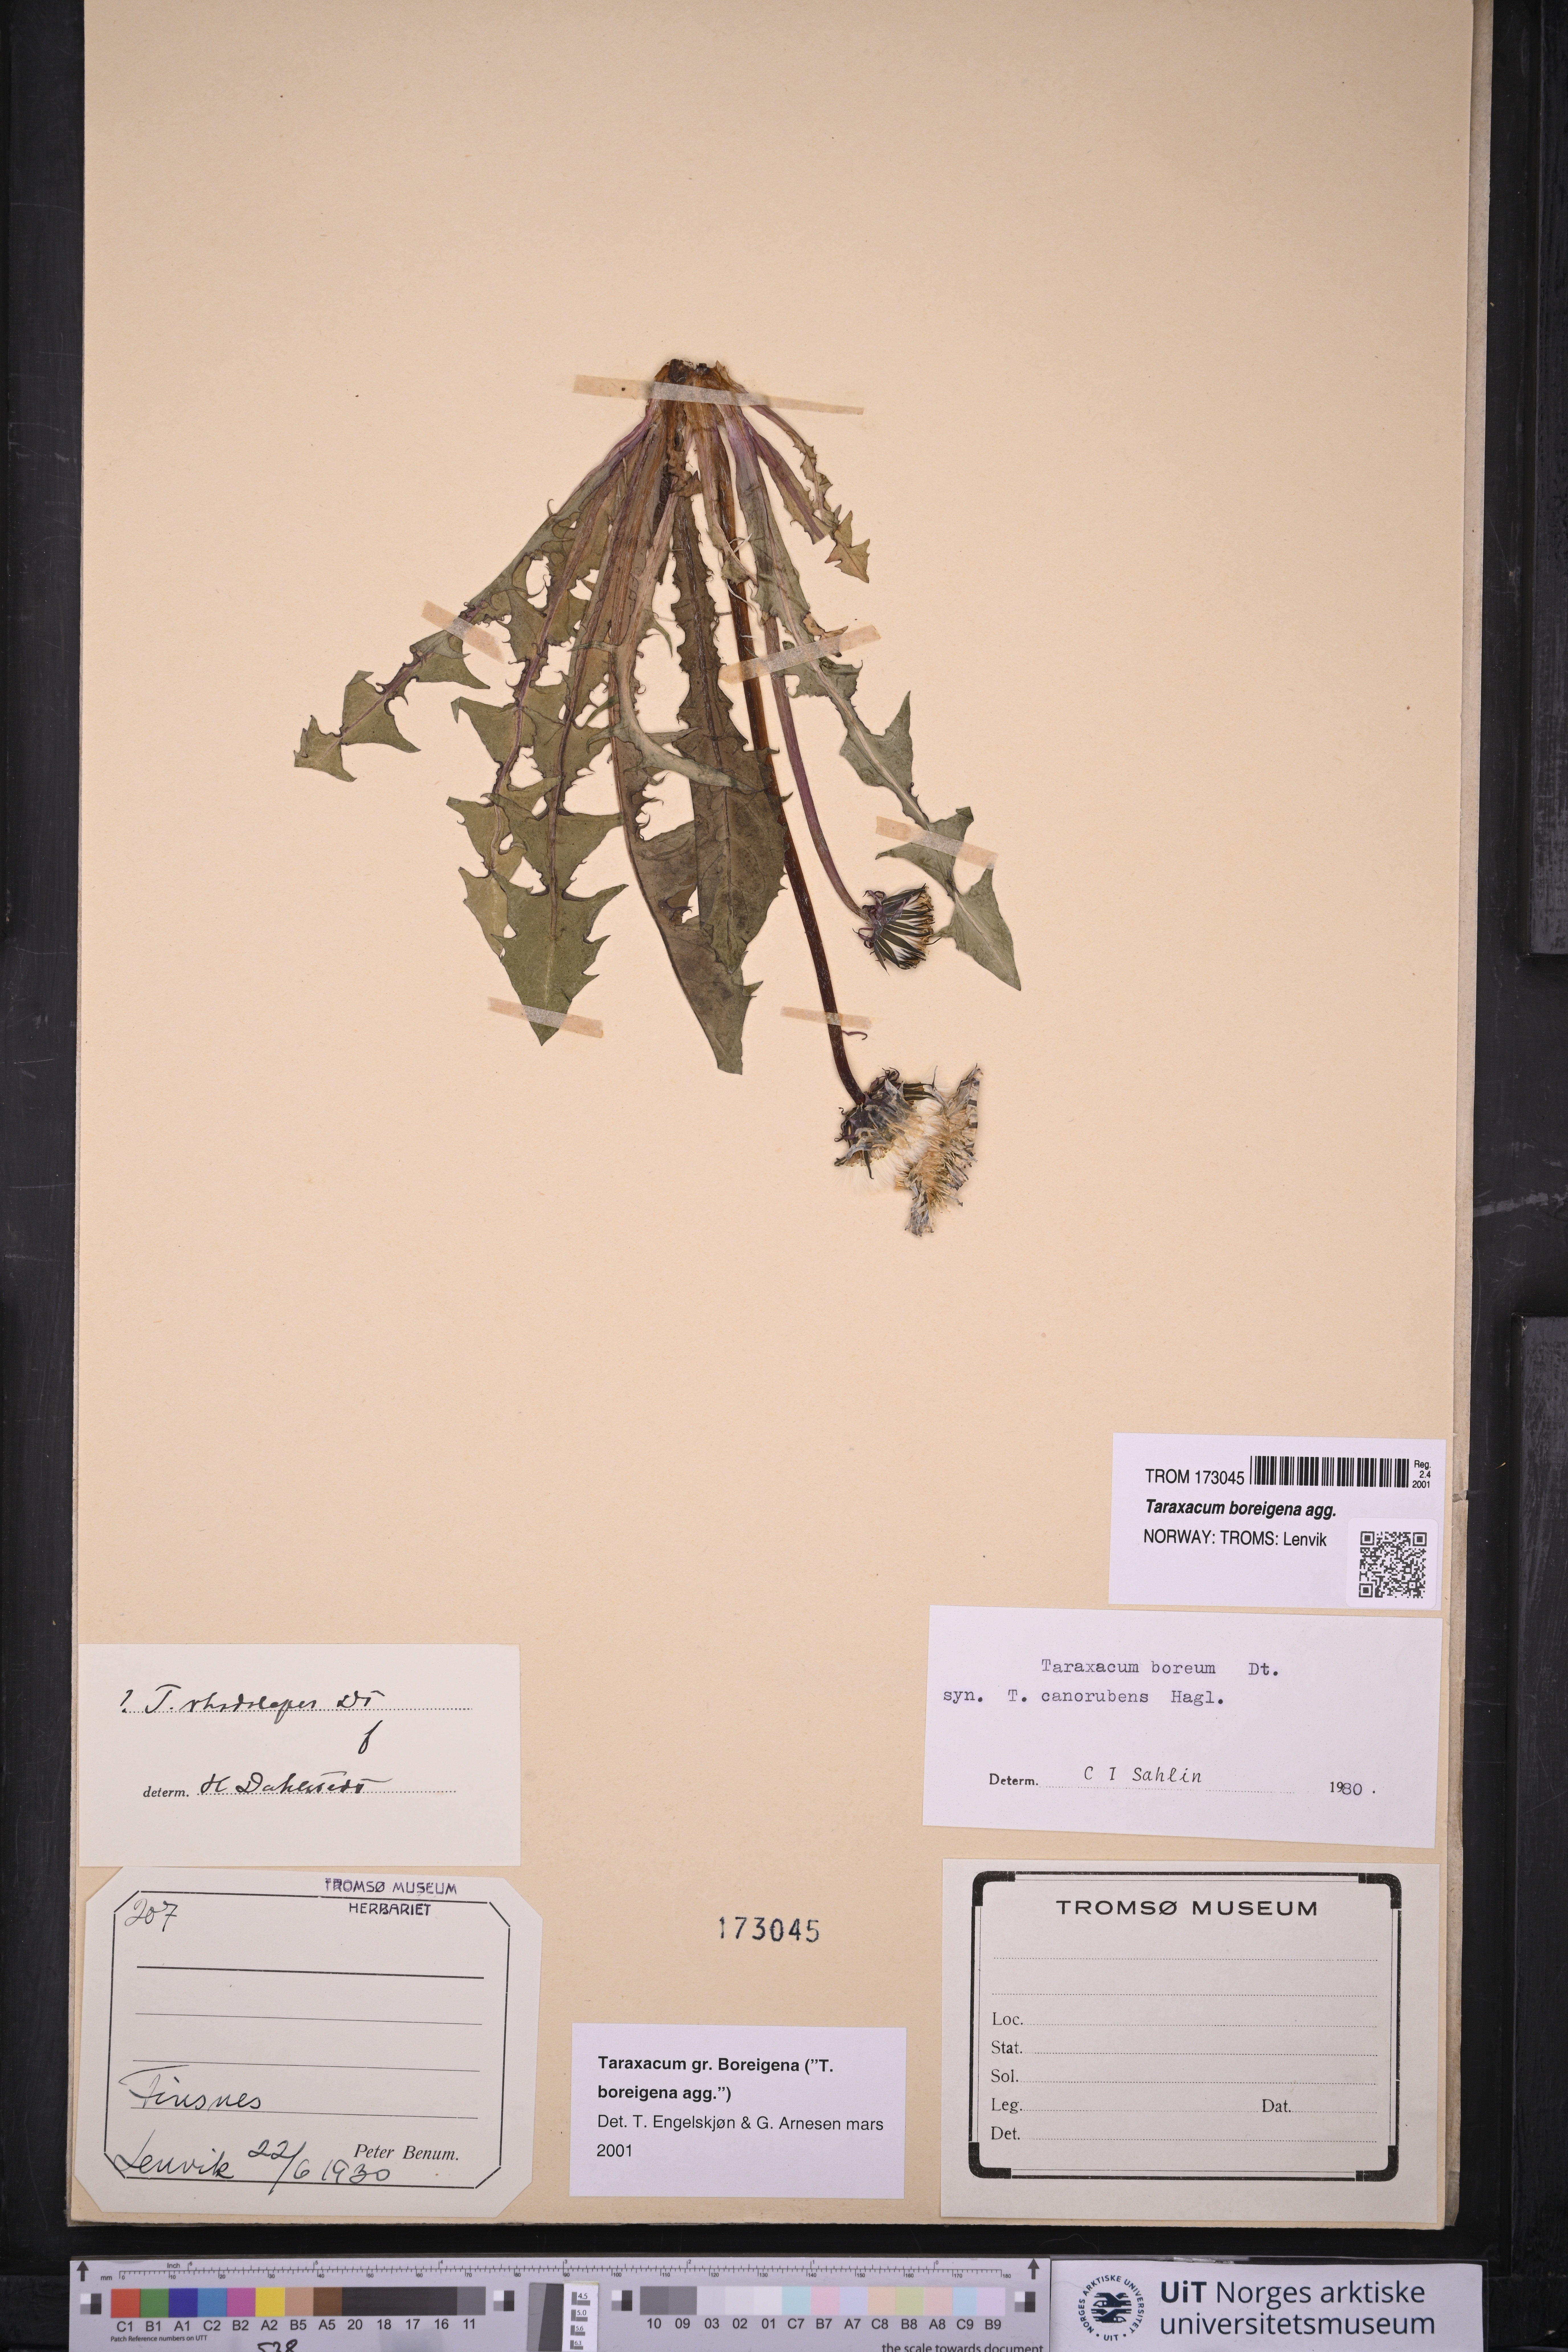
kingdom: Plantae
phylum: Tracheophyta
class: Magnoliopsida
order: Asterales
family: Asteraceae
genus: Taraxacum
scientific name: Taraxacum
